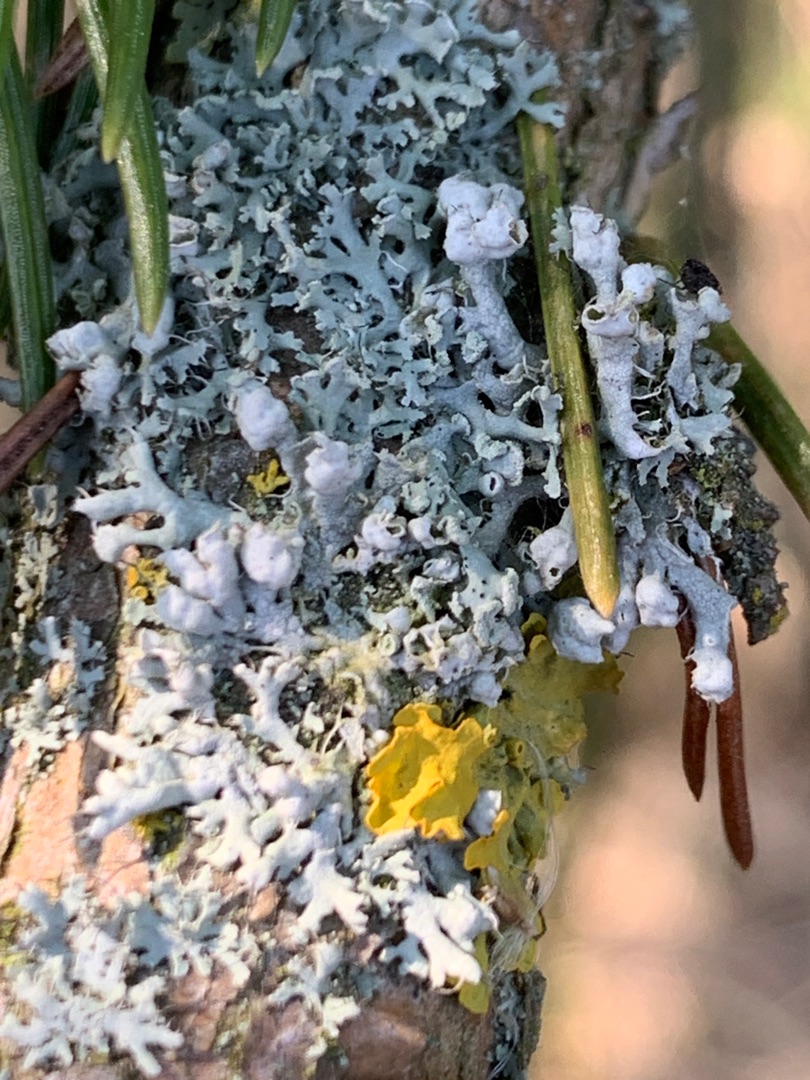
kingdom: Fungi
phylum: Ascomycota
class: Lecanoromycetes
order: Caliciales
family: Physciaceae
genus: Physcia
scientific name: Physcia adscendens
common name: Hætte-rosetlav
